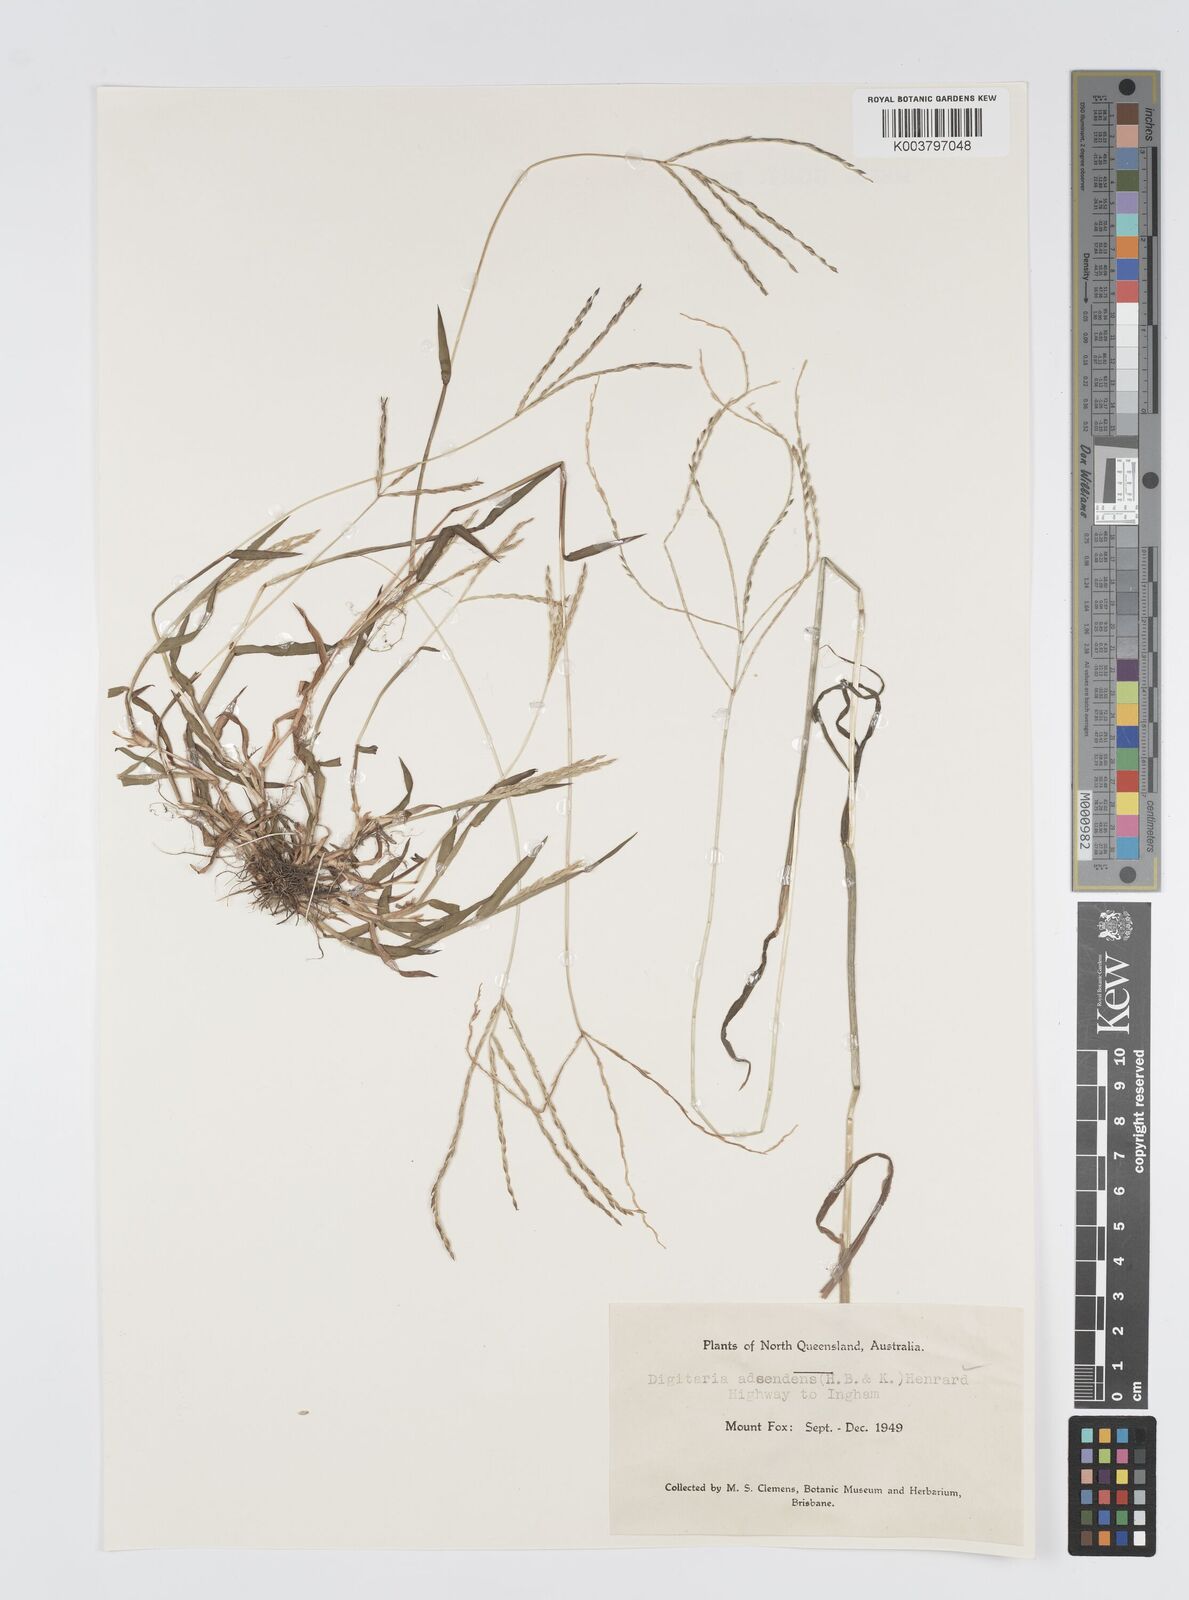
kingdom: Plantae
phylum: Tracheophyta
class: Liliopsida
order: Poales
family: Poaceae
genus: Digitaria
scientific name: Digitaria ciliaris
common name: Tropical finger-grass
